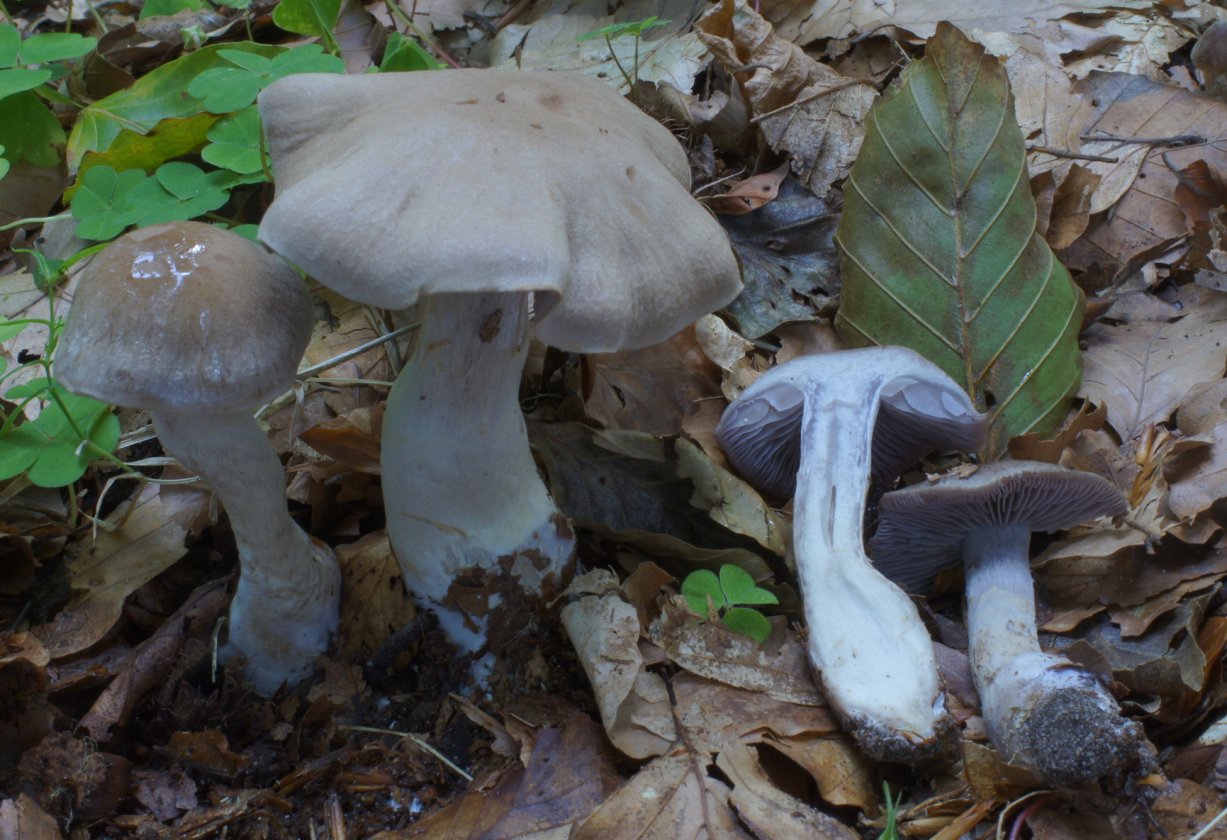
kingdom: Fungi
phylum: Basidiomycota
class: Agaricomycetes
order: Agaricales
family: Cortinariaceae
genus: Cortinarius
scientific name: Cortinarius anomalus
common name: Variable webcap
